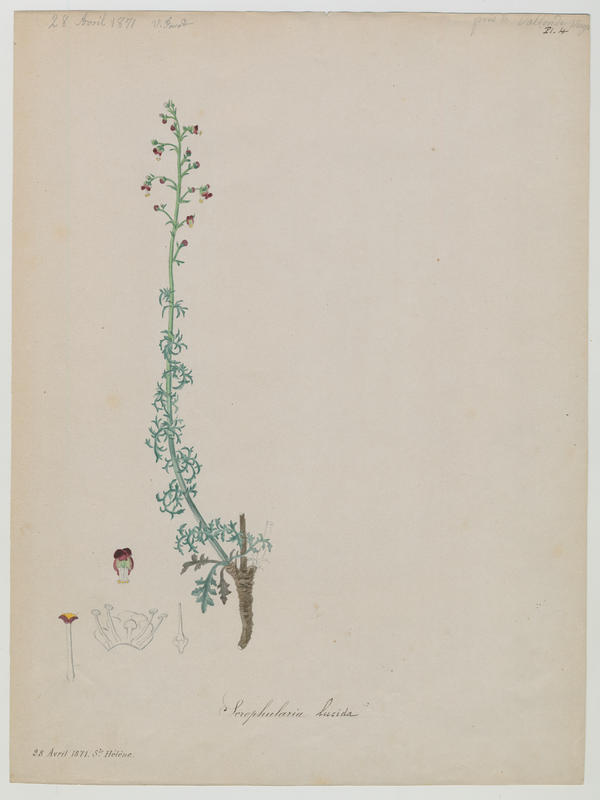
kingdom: Plantae
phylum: Tracheophyta
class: Magnoliopsida
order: Lamiales
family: Scrophulariaceae
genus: Scrophularia
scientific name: Scrophularia lucida
